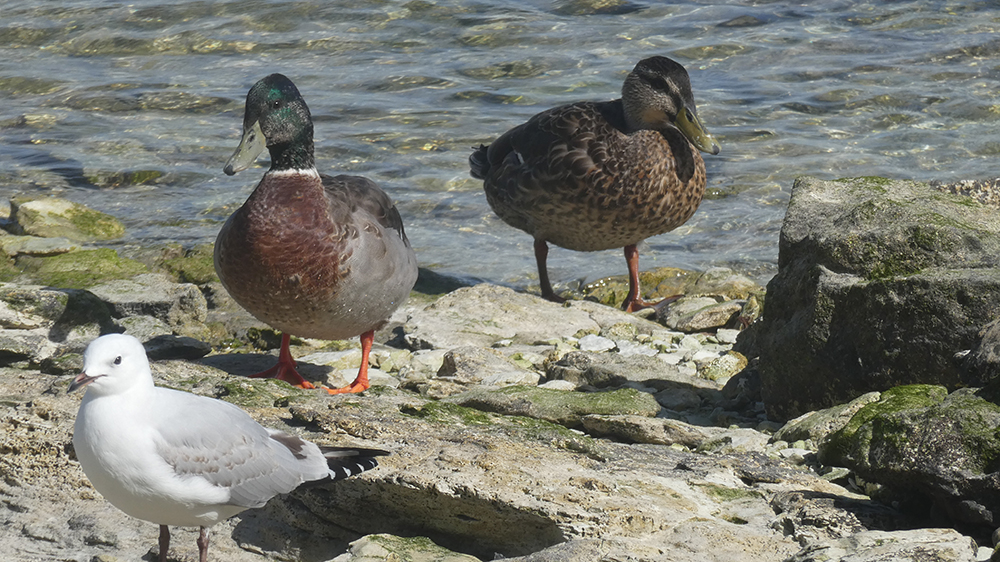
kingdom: Animalia
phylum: Chordata
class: Aves
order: Anseriformes
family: Anatidae
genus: Anas
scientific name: Anas platyrhynchos
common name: Mallard
